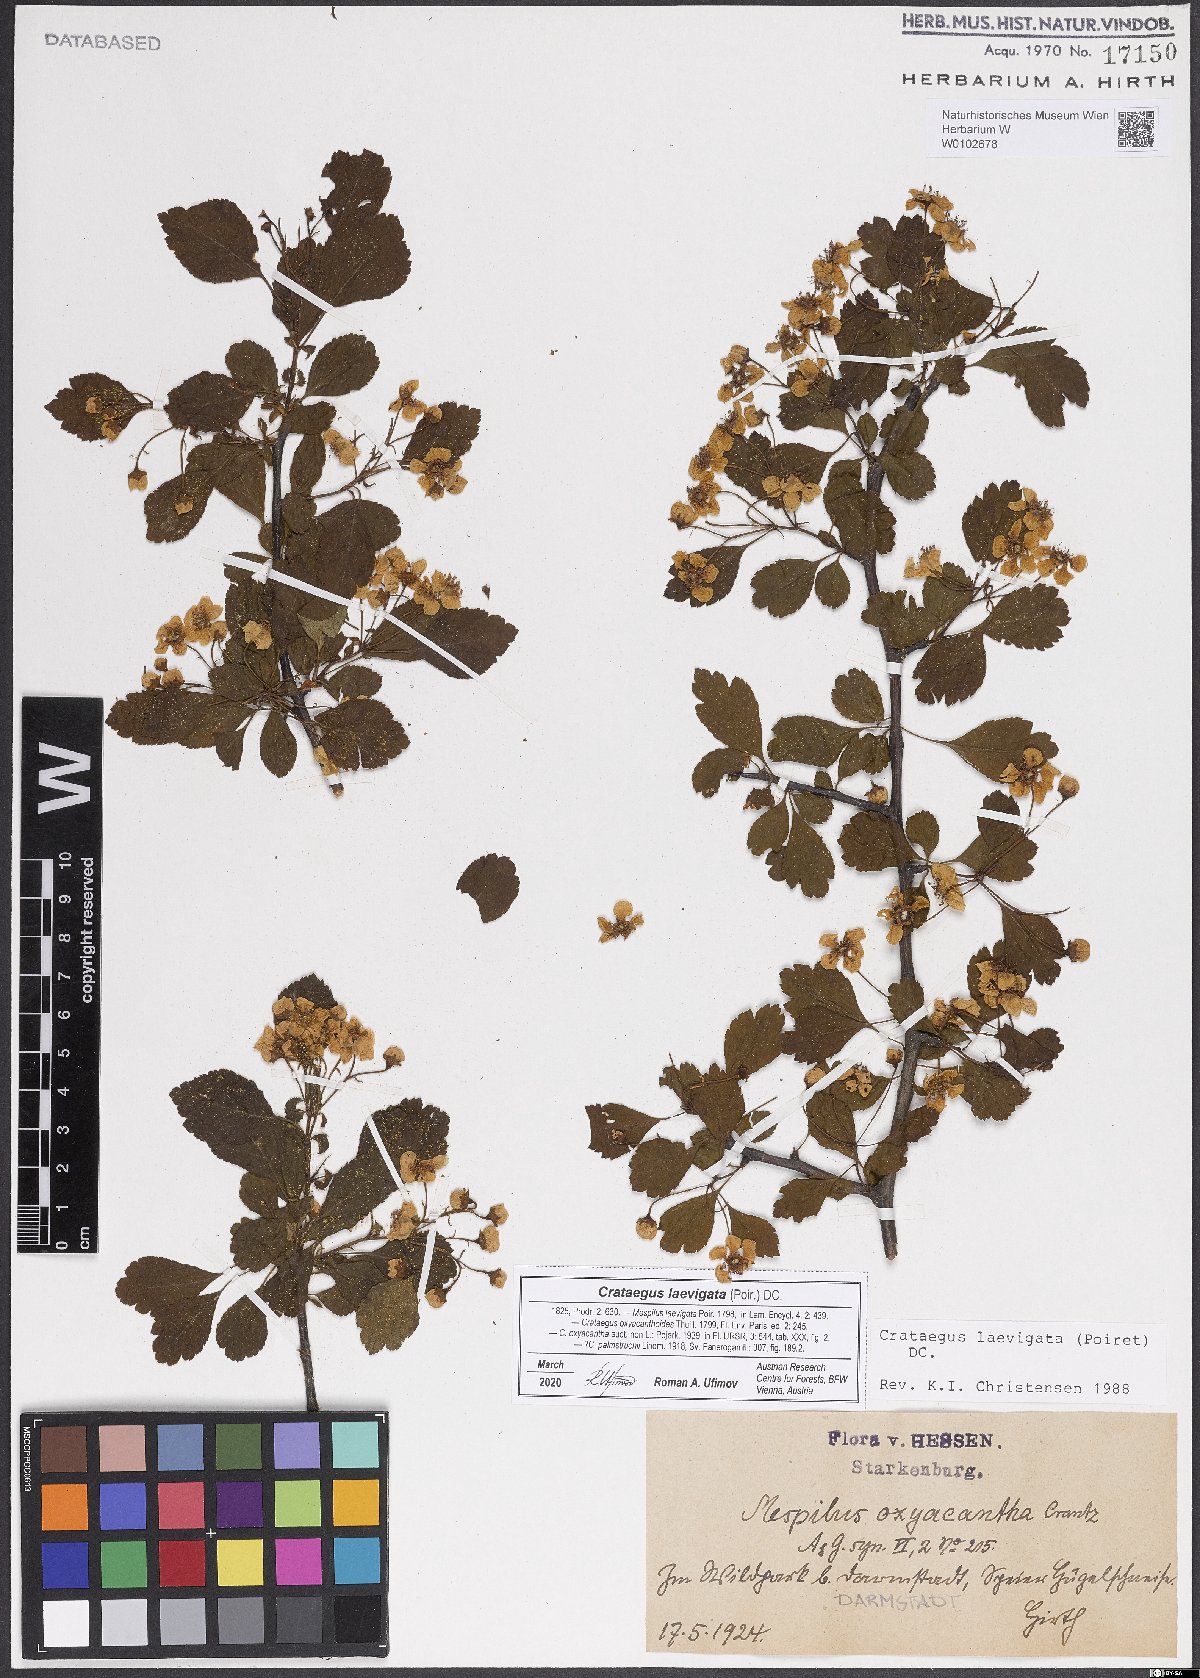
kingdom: Plantae
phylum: Tracheophyta
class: Magnoliopsida
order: Rosales
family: Rosaceae
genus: Crataegus
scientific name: Crataegus laevigata
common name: Midland hawthorn
